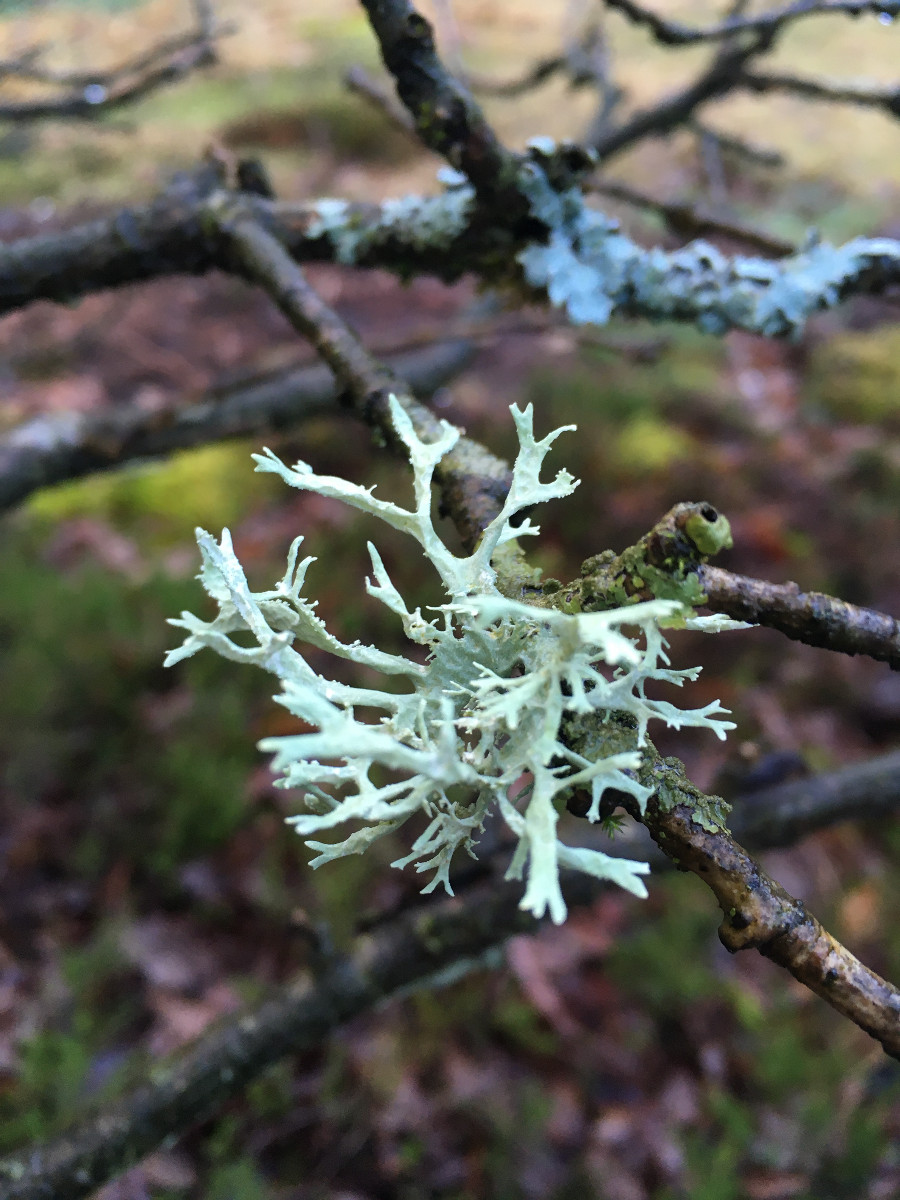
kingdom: Fungi
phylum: Ascomycota
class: Lecanoromycetes
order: Lecanorales
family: Parmeliaceae
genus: Evernia
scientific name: Evernia prunastri
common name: almindelig slåenlav
